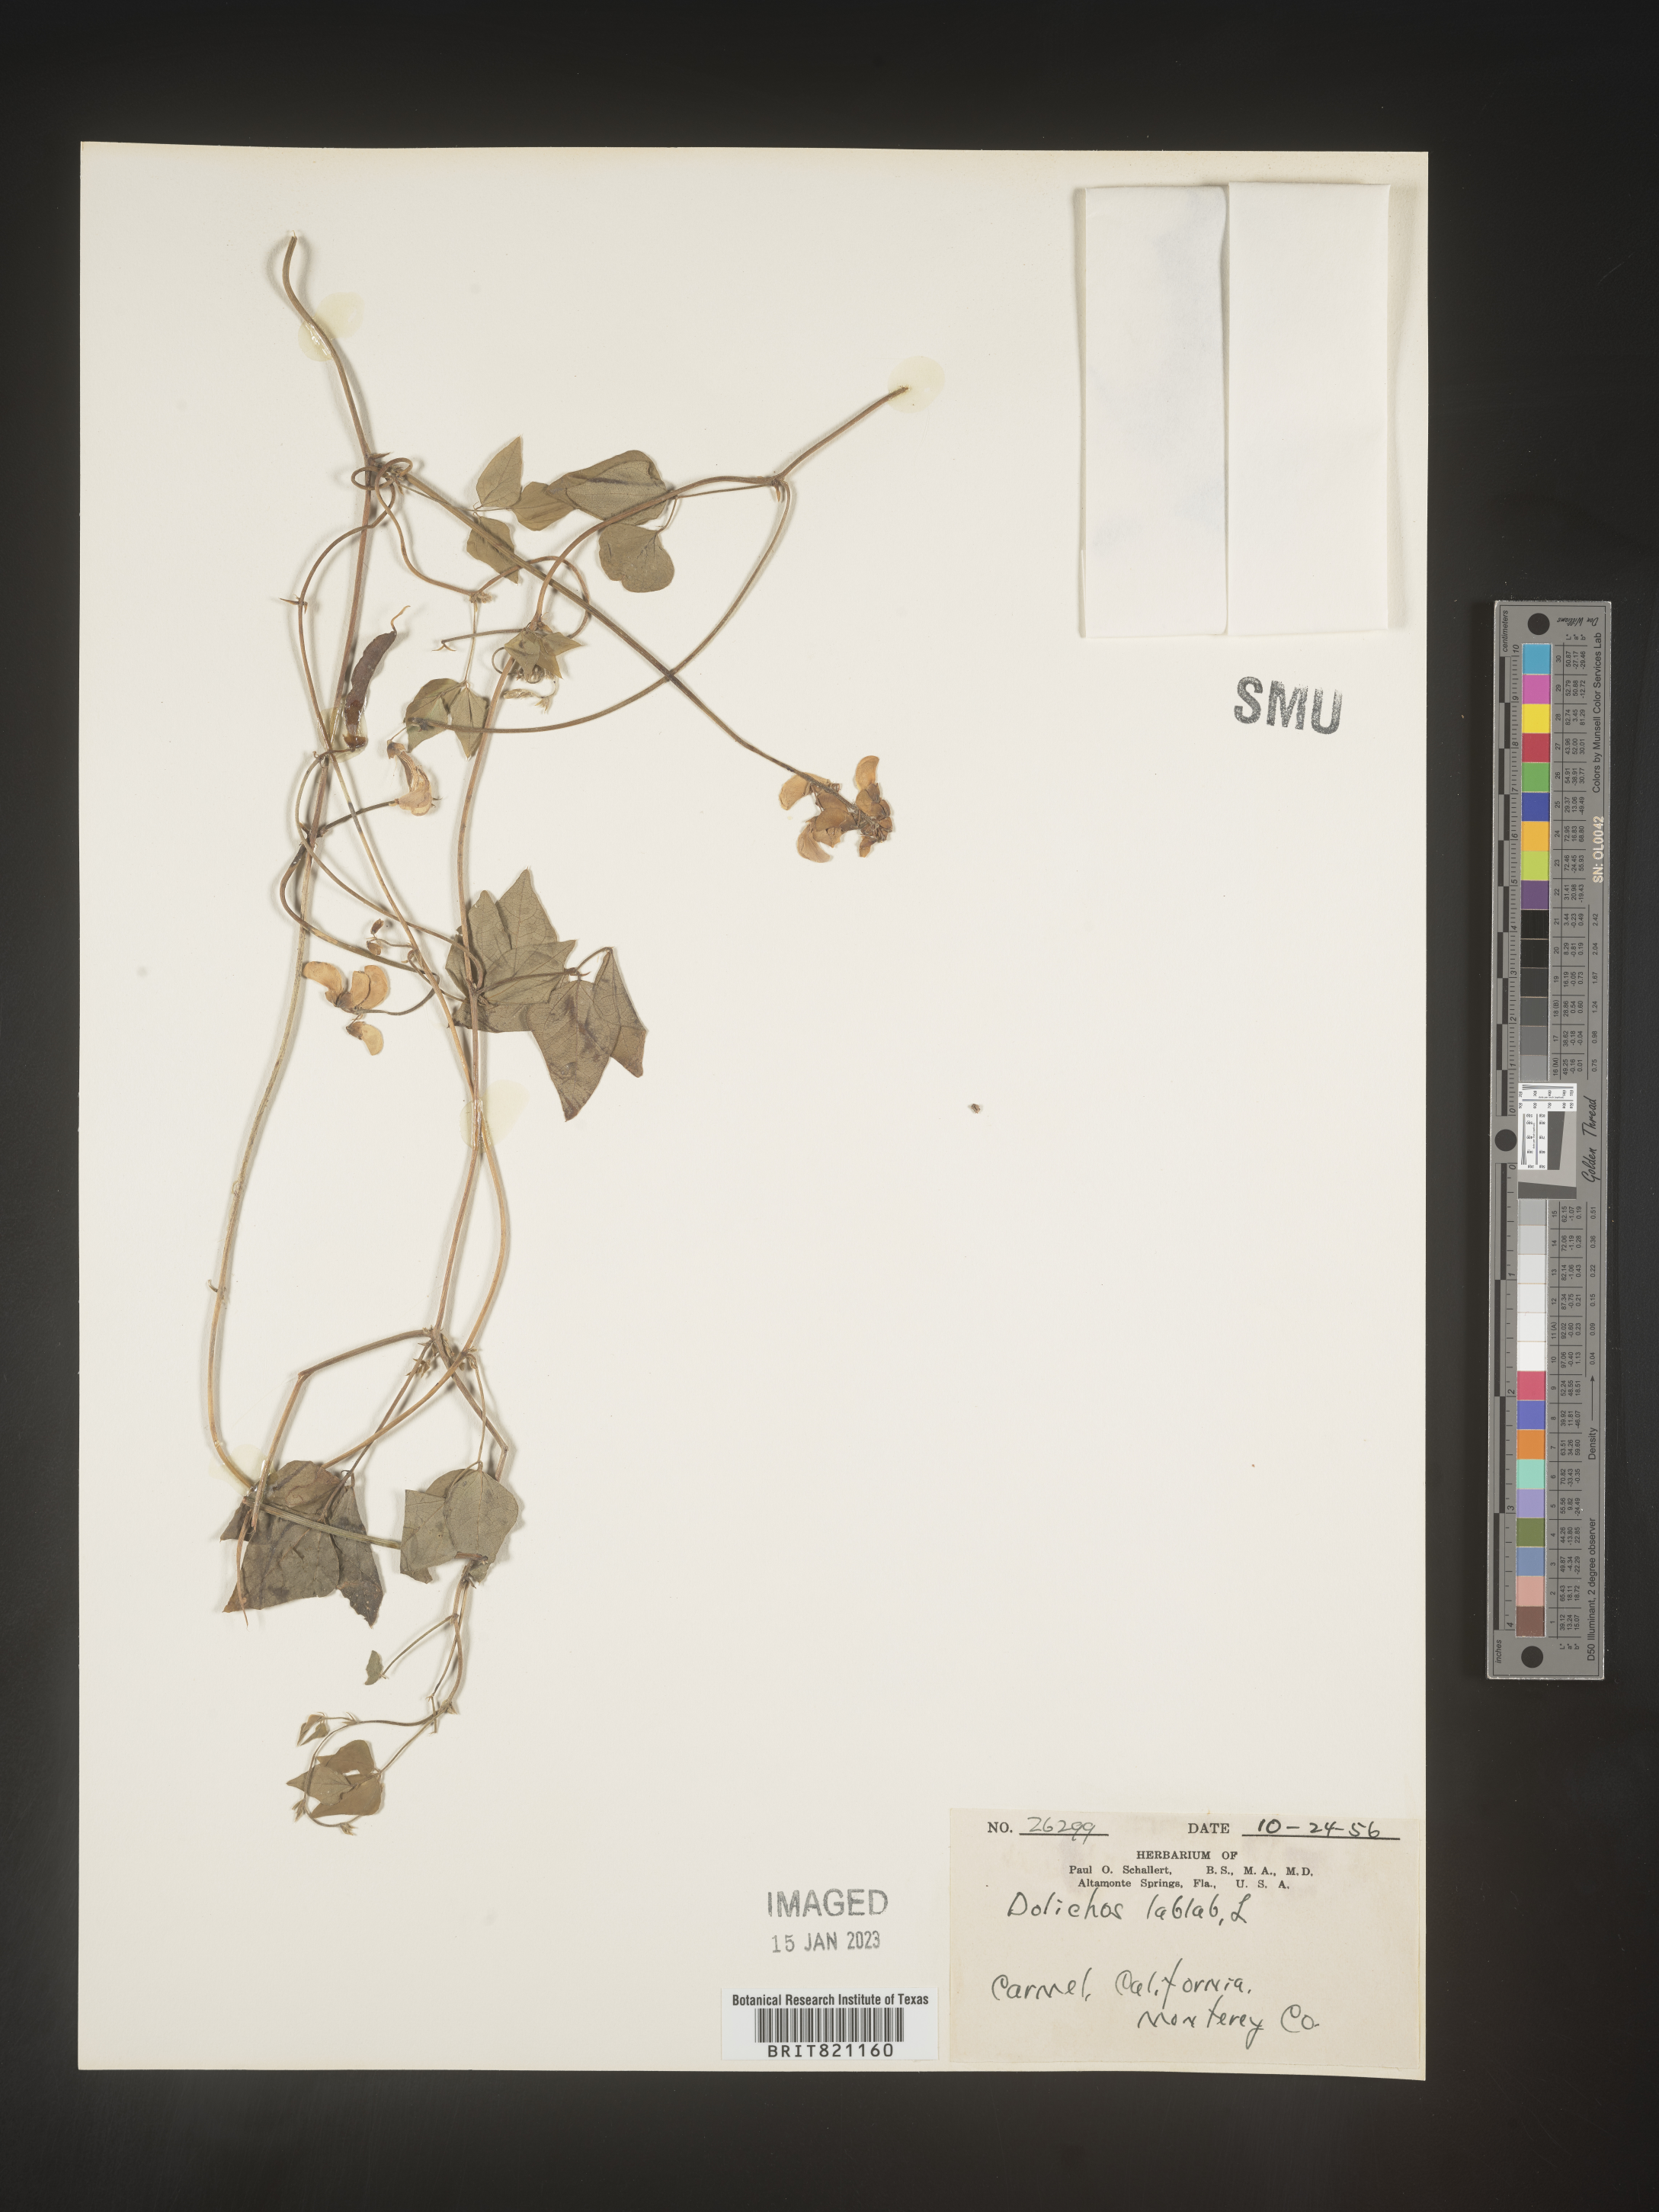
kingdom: Plantae
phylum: Tracheophyta
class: Magnoliopsida
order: Fabales
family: Fabaceae
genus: Dolichos
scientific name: Dolichos
